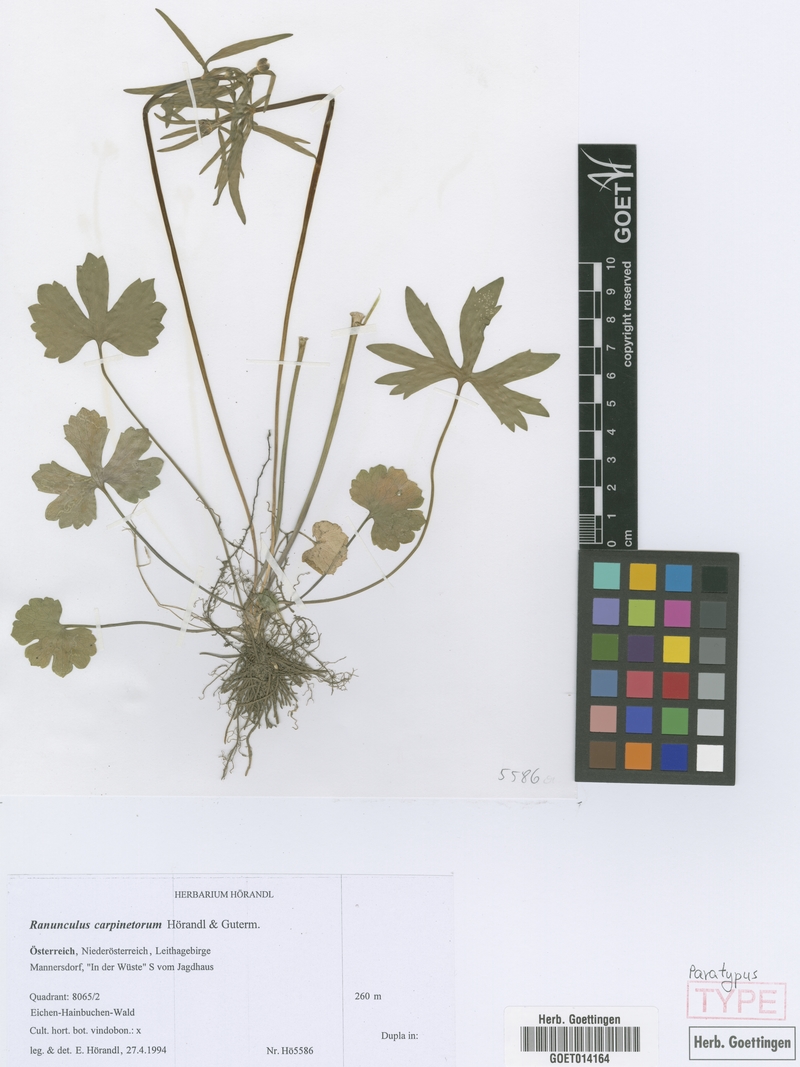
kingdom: Plantae
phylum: Tracheophyta
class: Magnoliopsida
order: Ranunculales
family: Ranunculaceae
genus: Ranunculus
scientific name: Ranunculus carpinetorum
